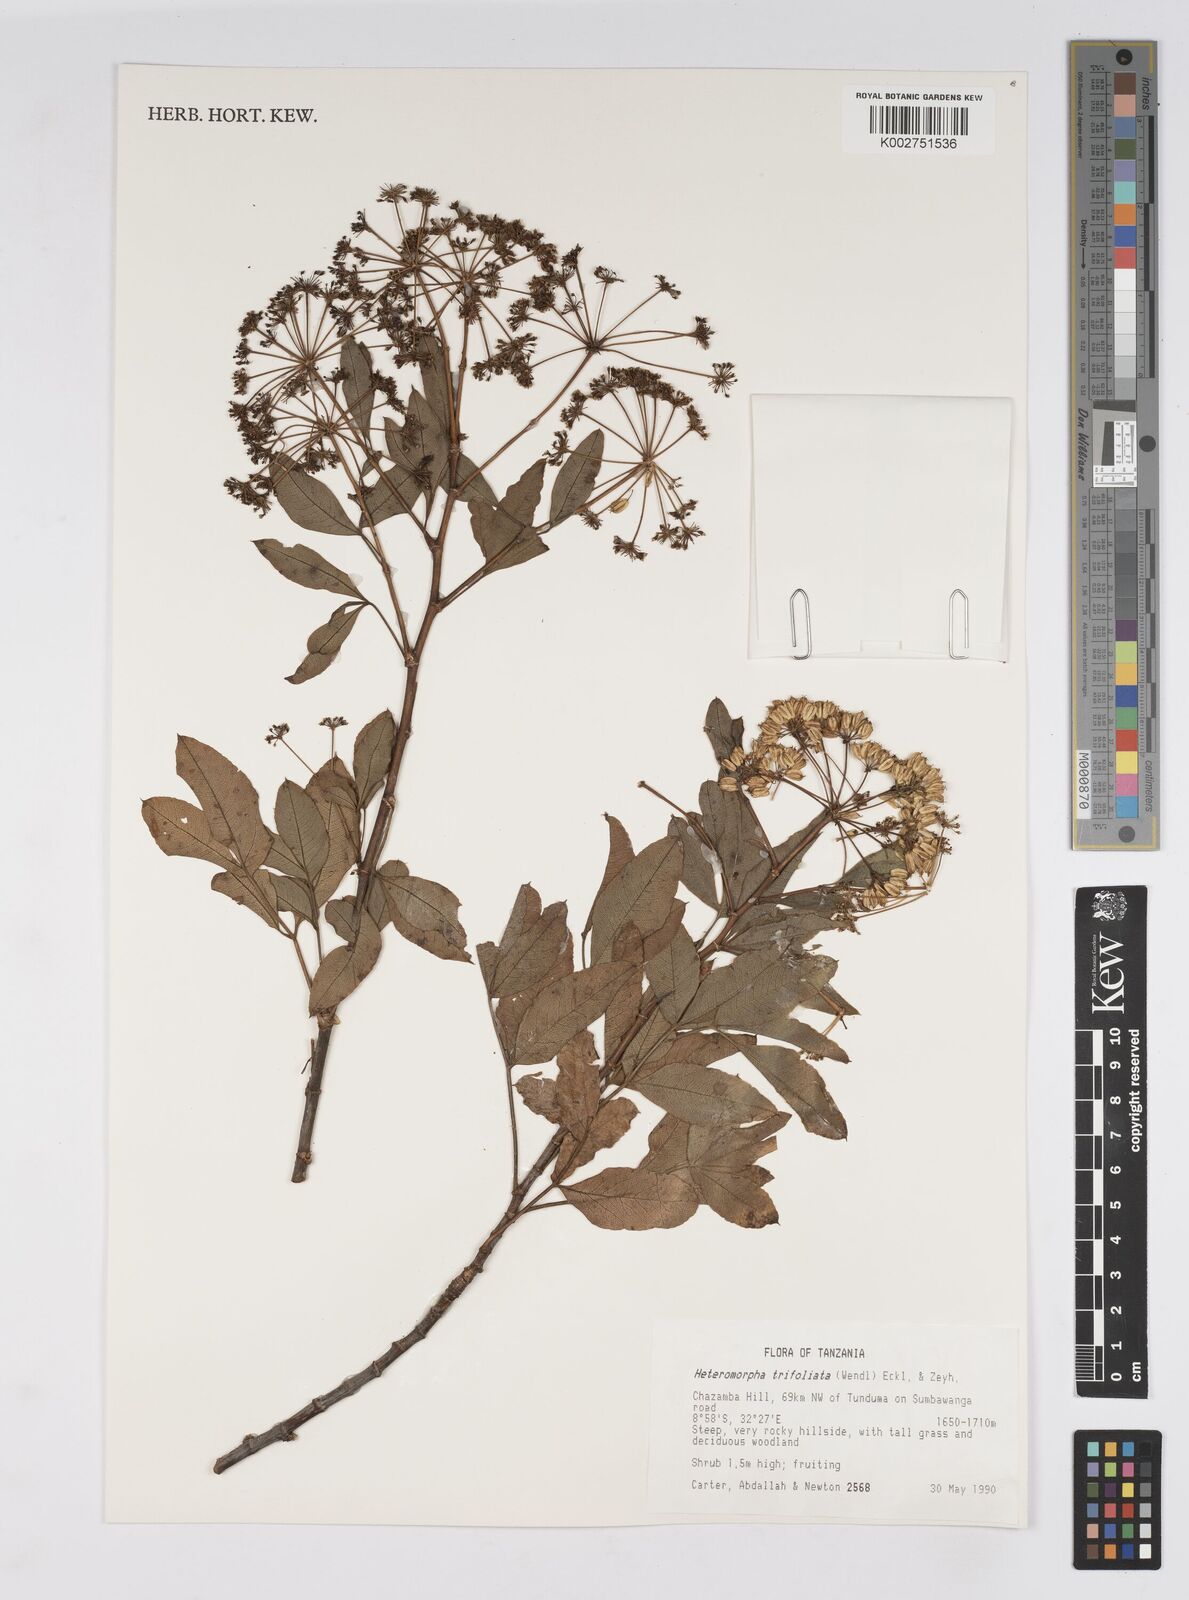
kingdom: Plantae
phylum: Tracheophyta
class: Magnoliopsida
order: Apiales
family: Apiaceae
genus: Heteromorpha
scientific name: Heteromorpha arborescens
